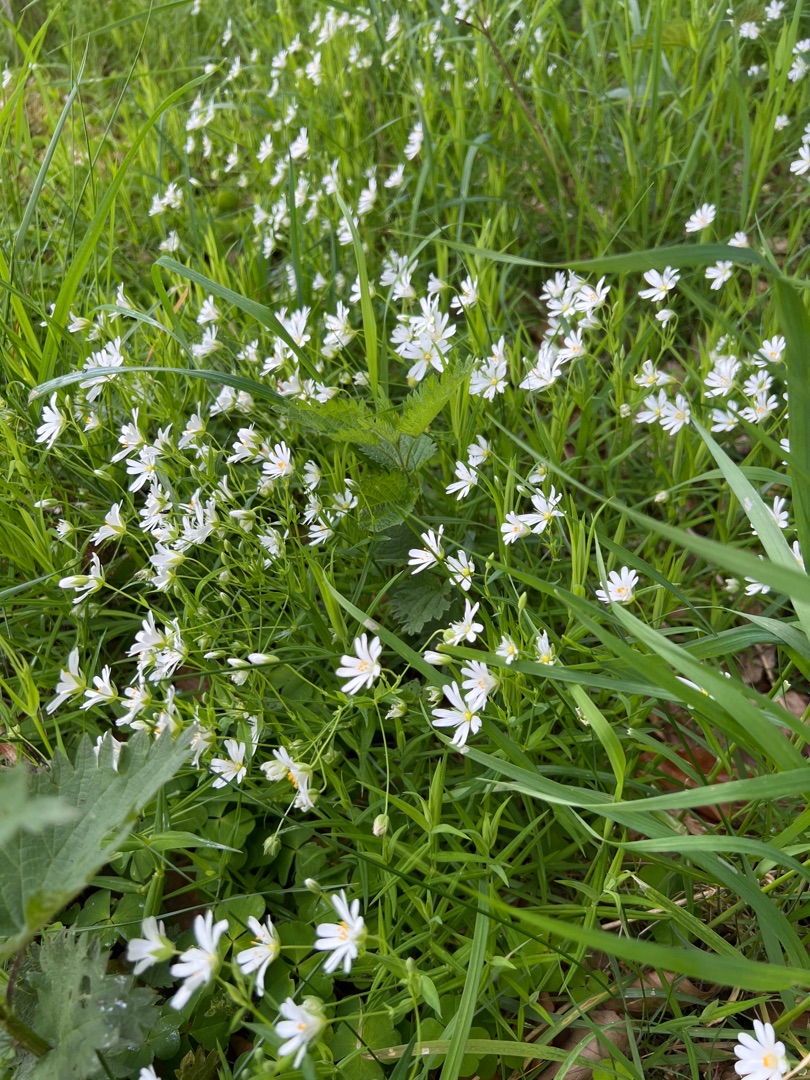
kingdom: Plantae
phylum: Tracheophyta
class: Magnoliopsida
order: Caryophyllales
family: Caryophyllaceae
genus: Rabelera
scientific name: Rabelera holostea
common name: Stor fladstjerne
